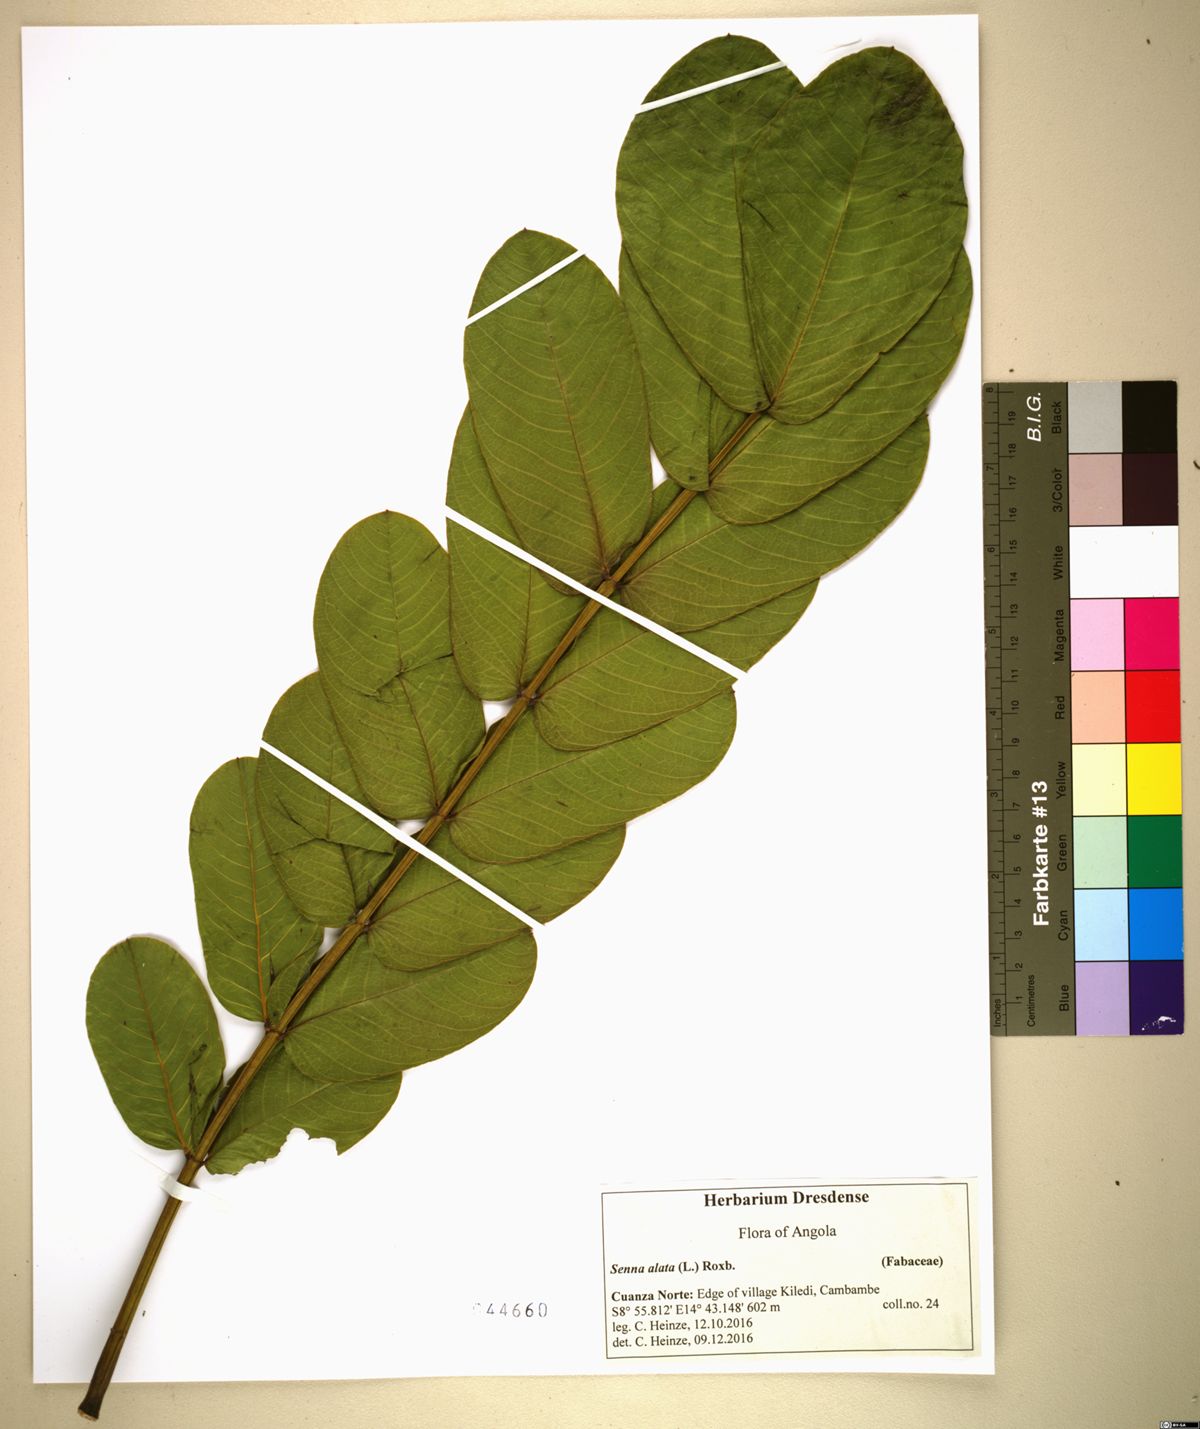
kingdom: Plantae
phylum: Tracheophyta
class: Magnoliopsida
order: Fabales
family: Fabaceae
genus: Senna
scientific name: Senna alata
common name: Emperor's candlesticks
